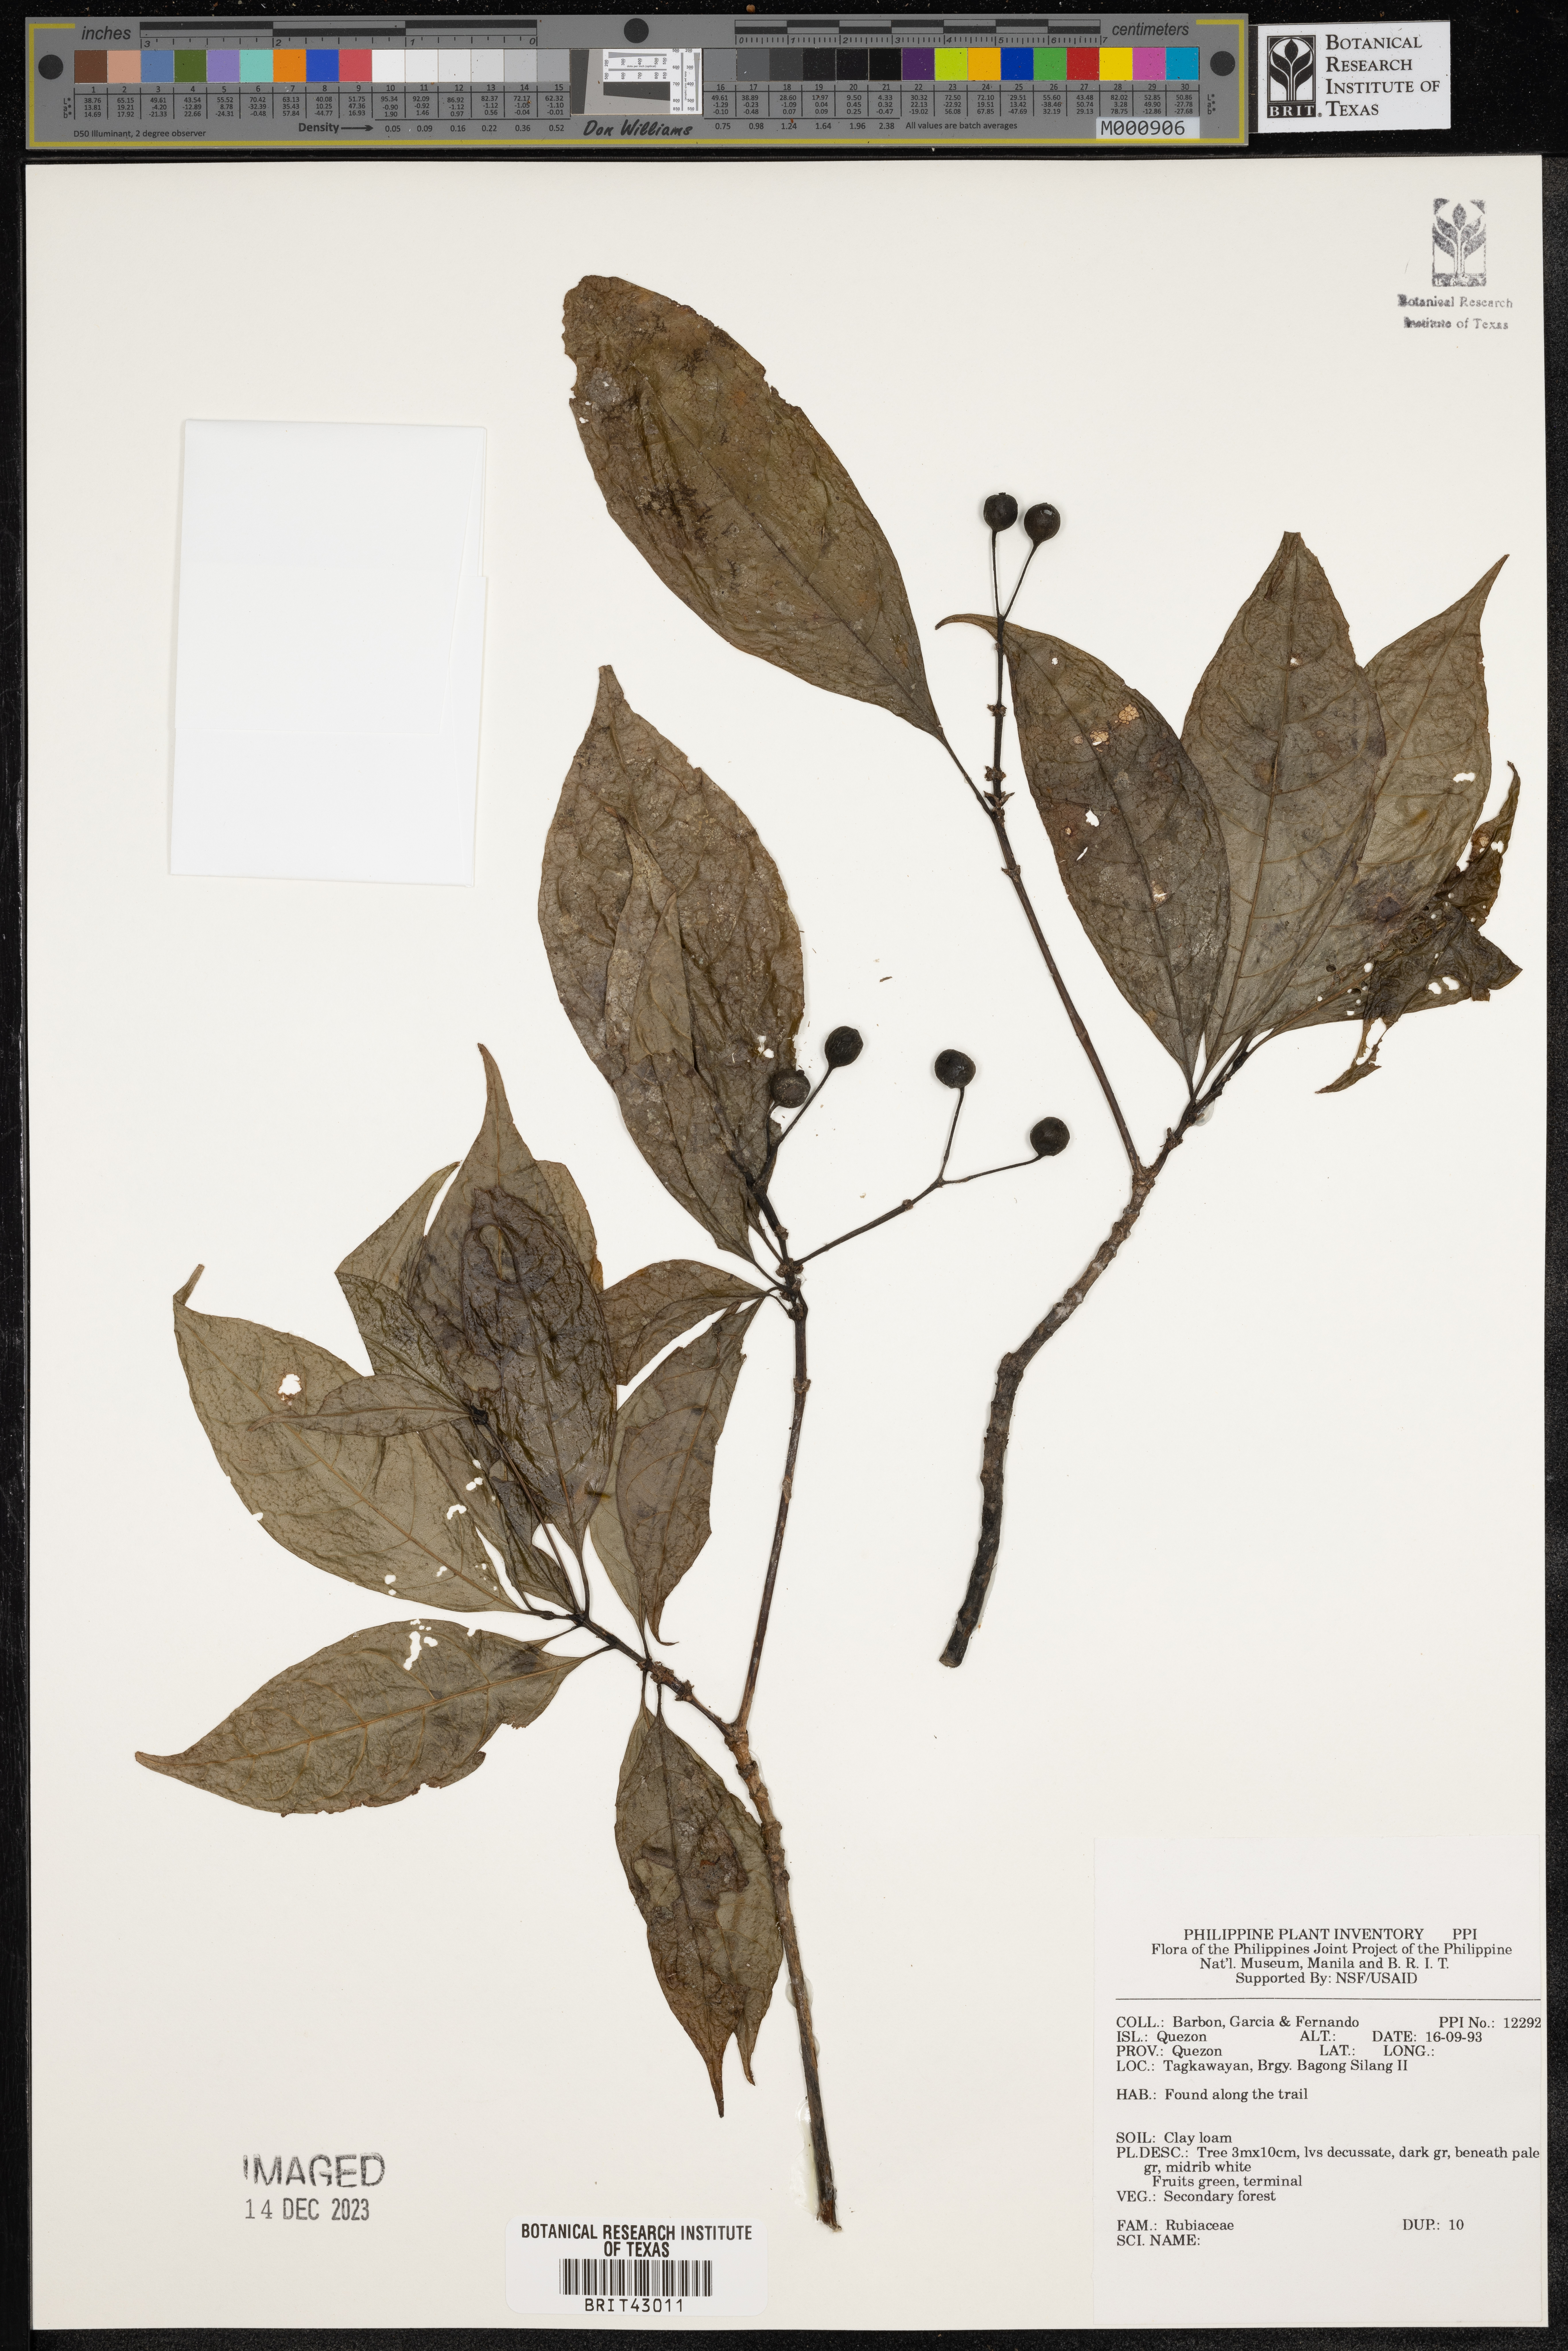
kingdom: Plantae
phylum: Tracheophyta
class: Magnoliopsida
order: Gentianales
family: Rubiaceae
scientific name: Rubiaceae
